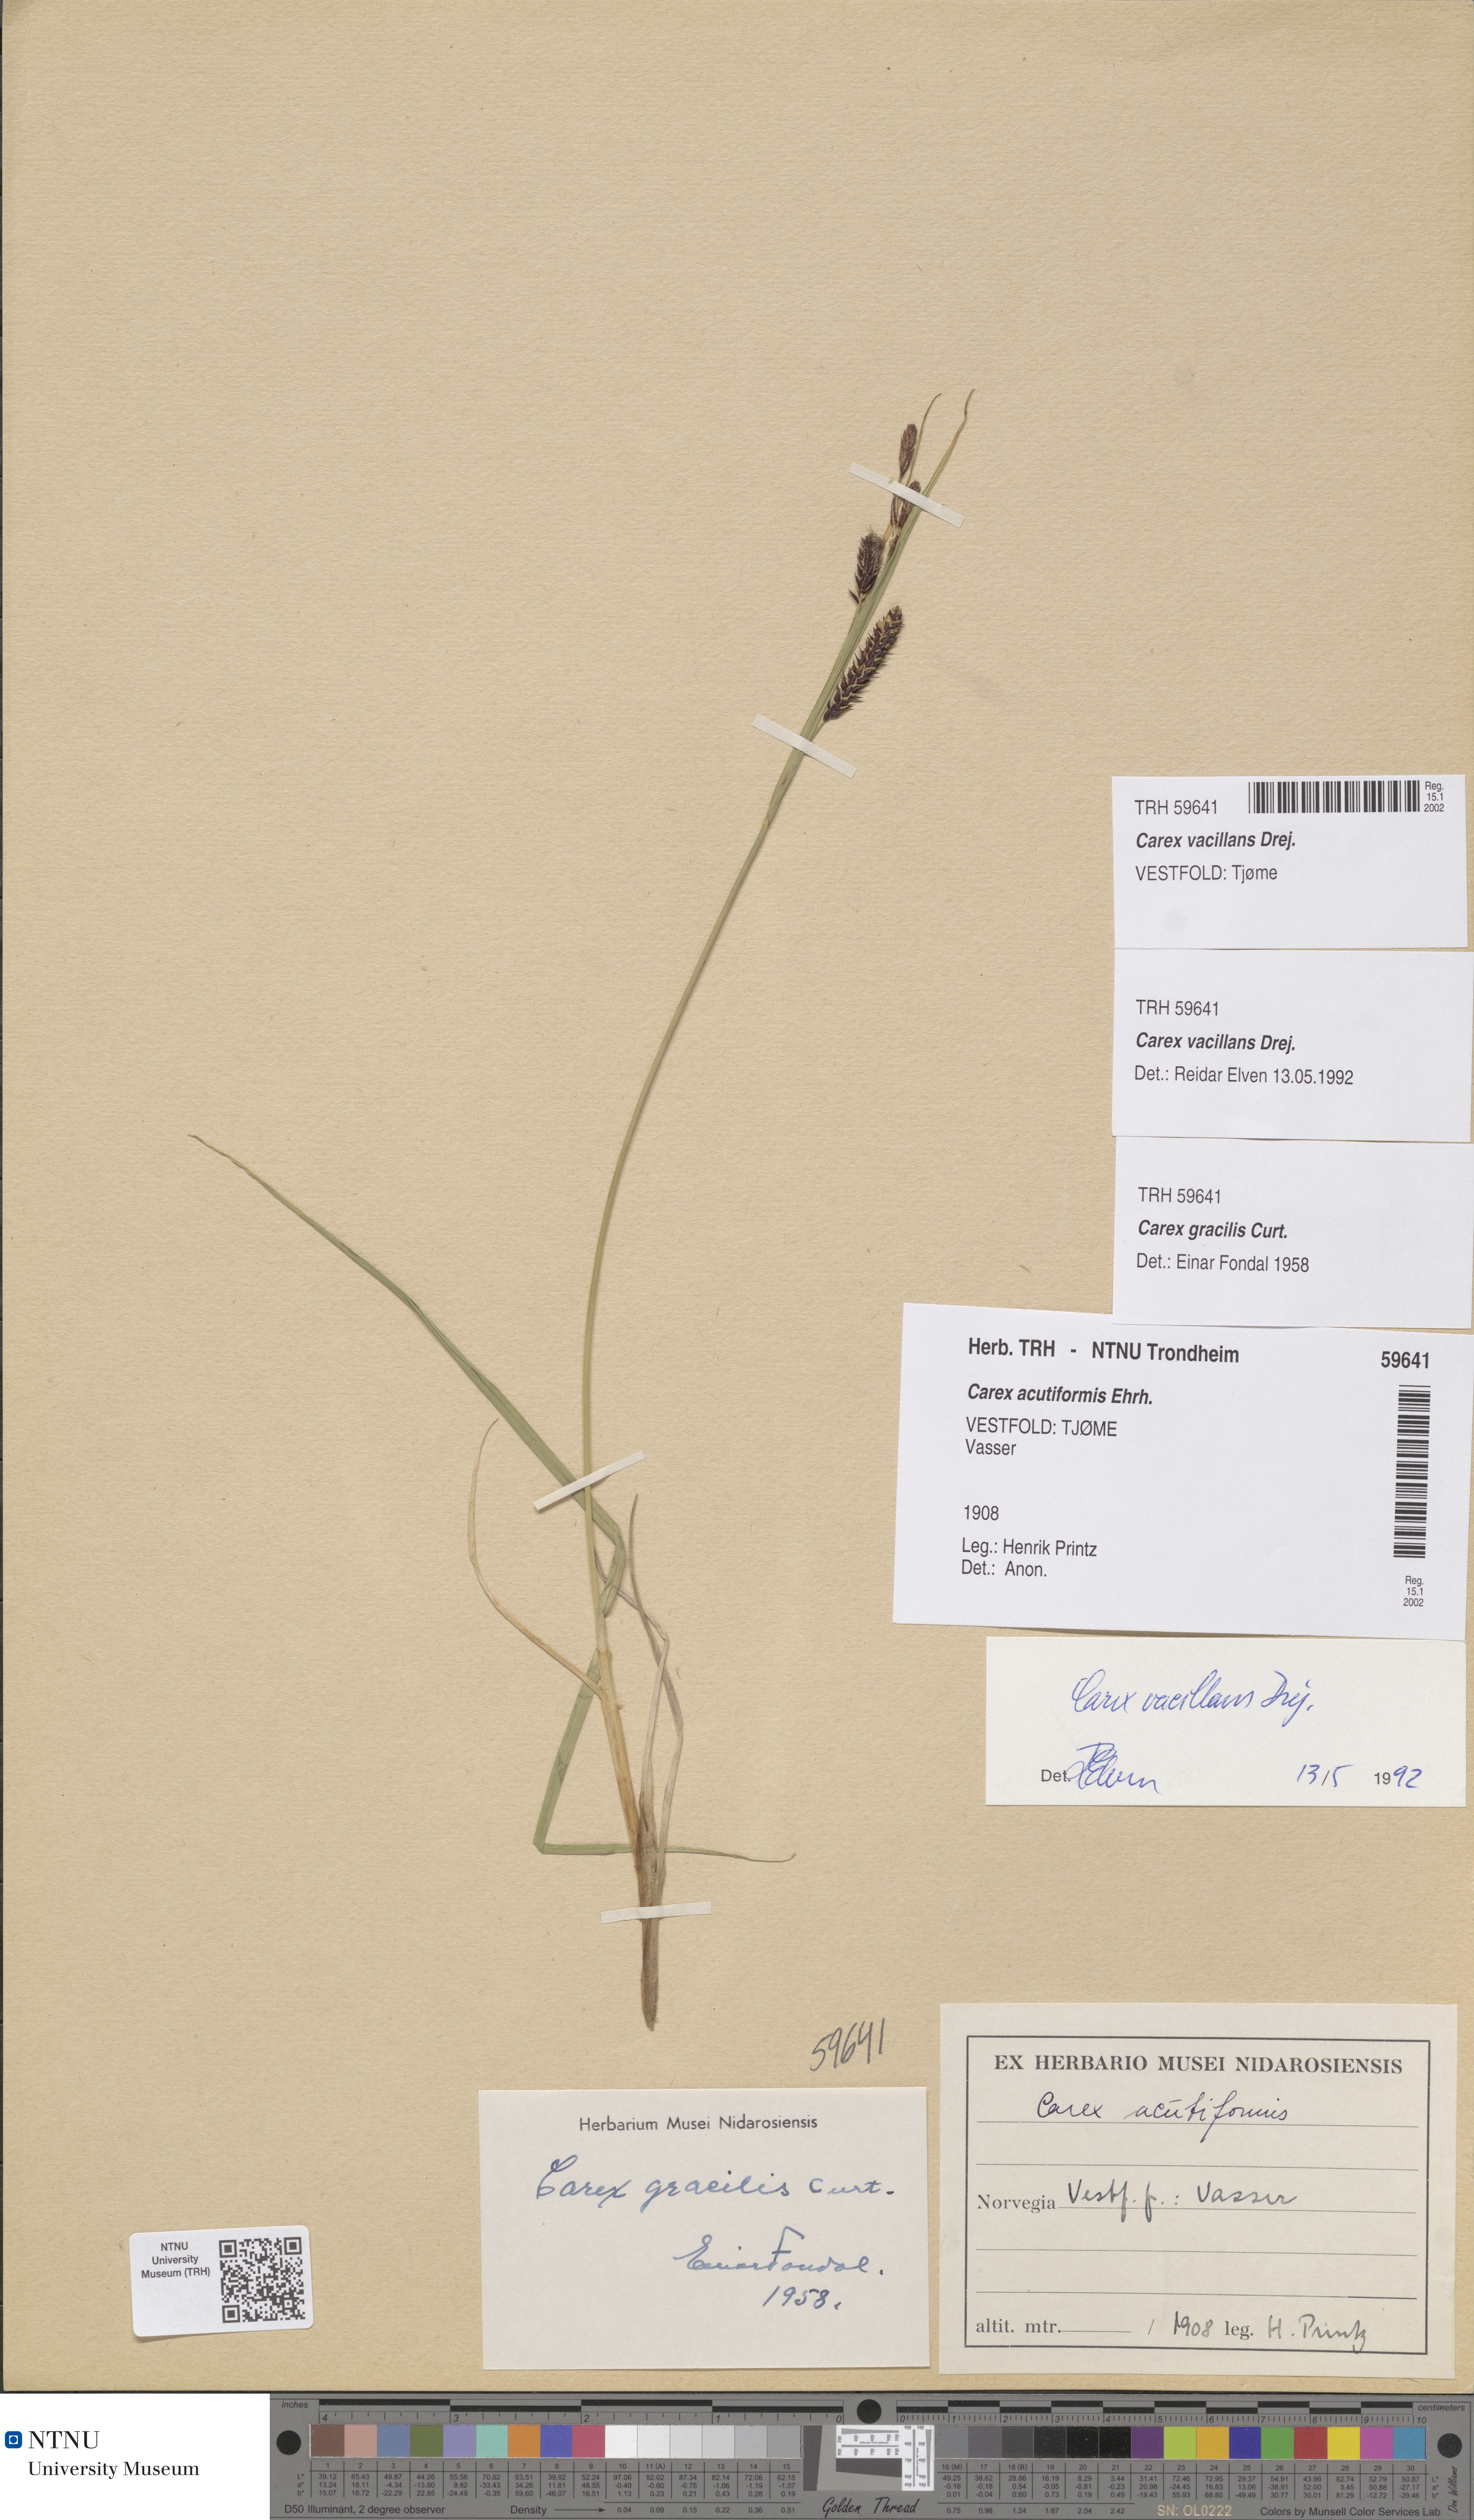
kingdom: Plantae
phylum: Tracheophyta
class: Liliopsida
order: Poales
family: Cyperaceae
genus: Carex
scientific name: Carex vacillans
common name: Sedge
